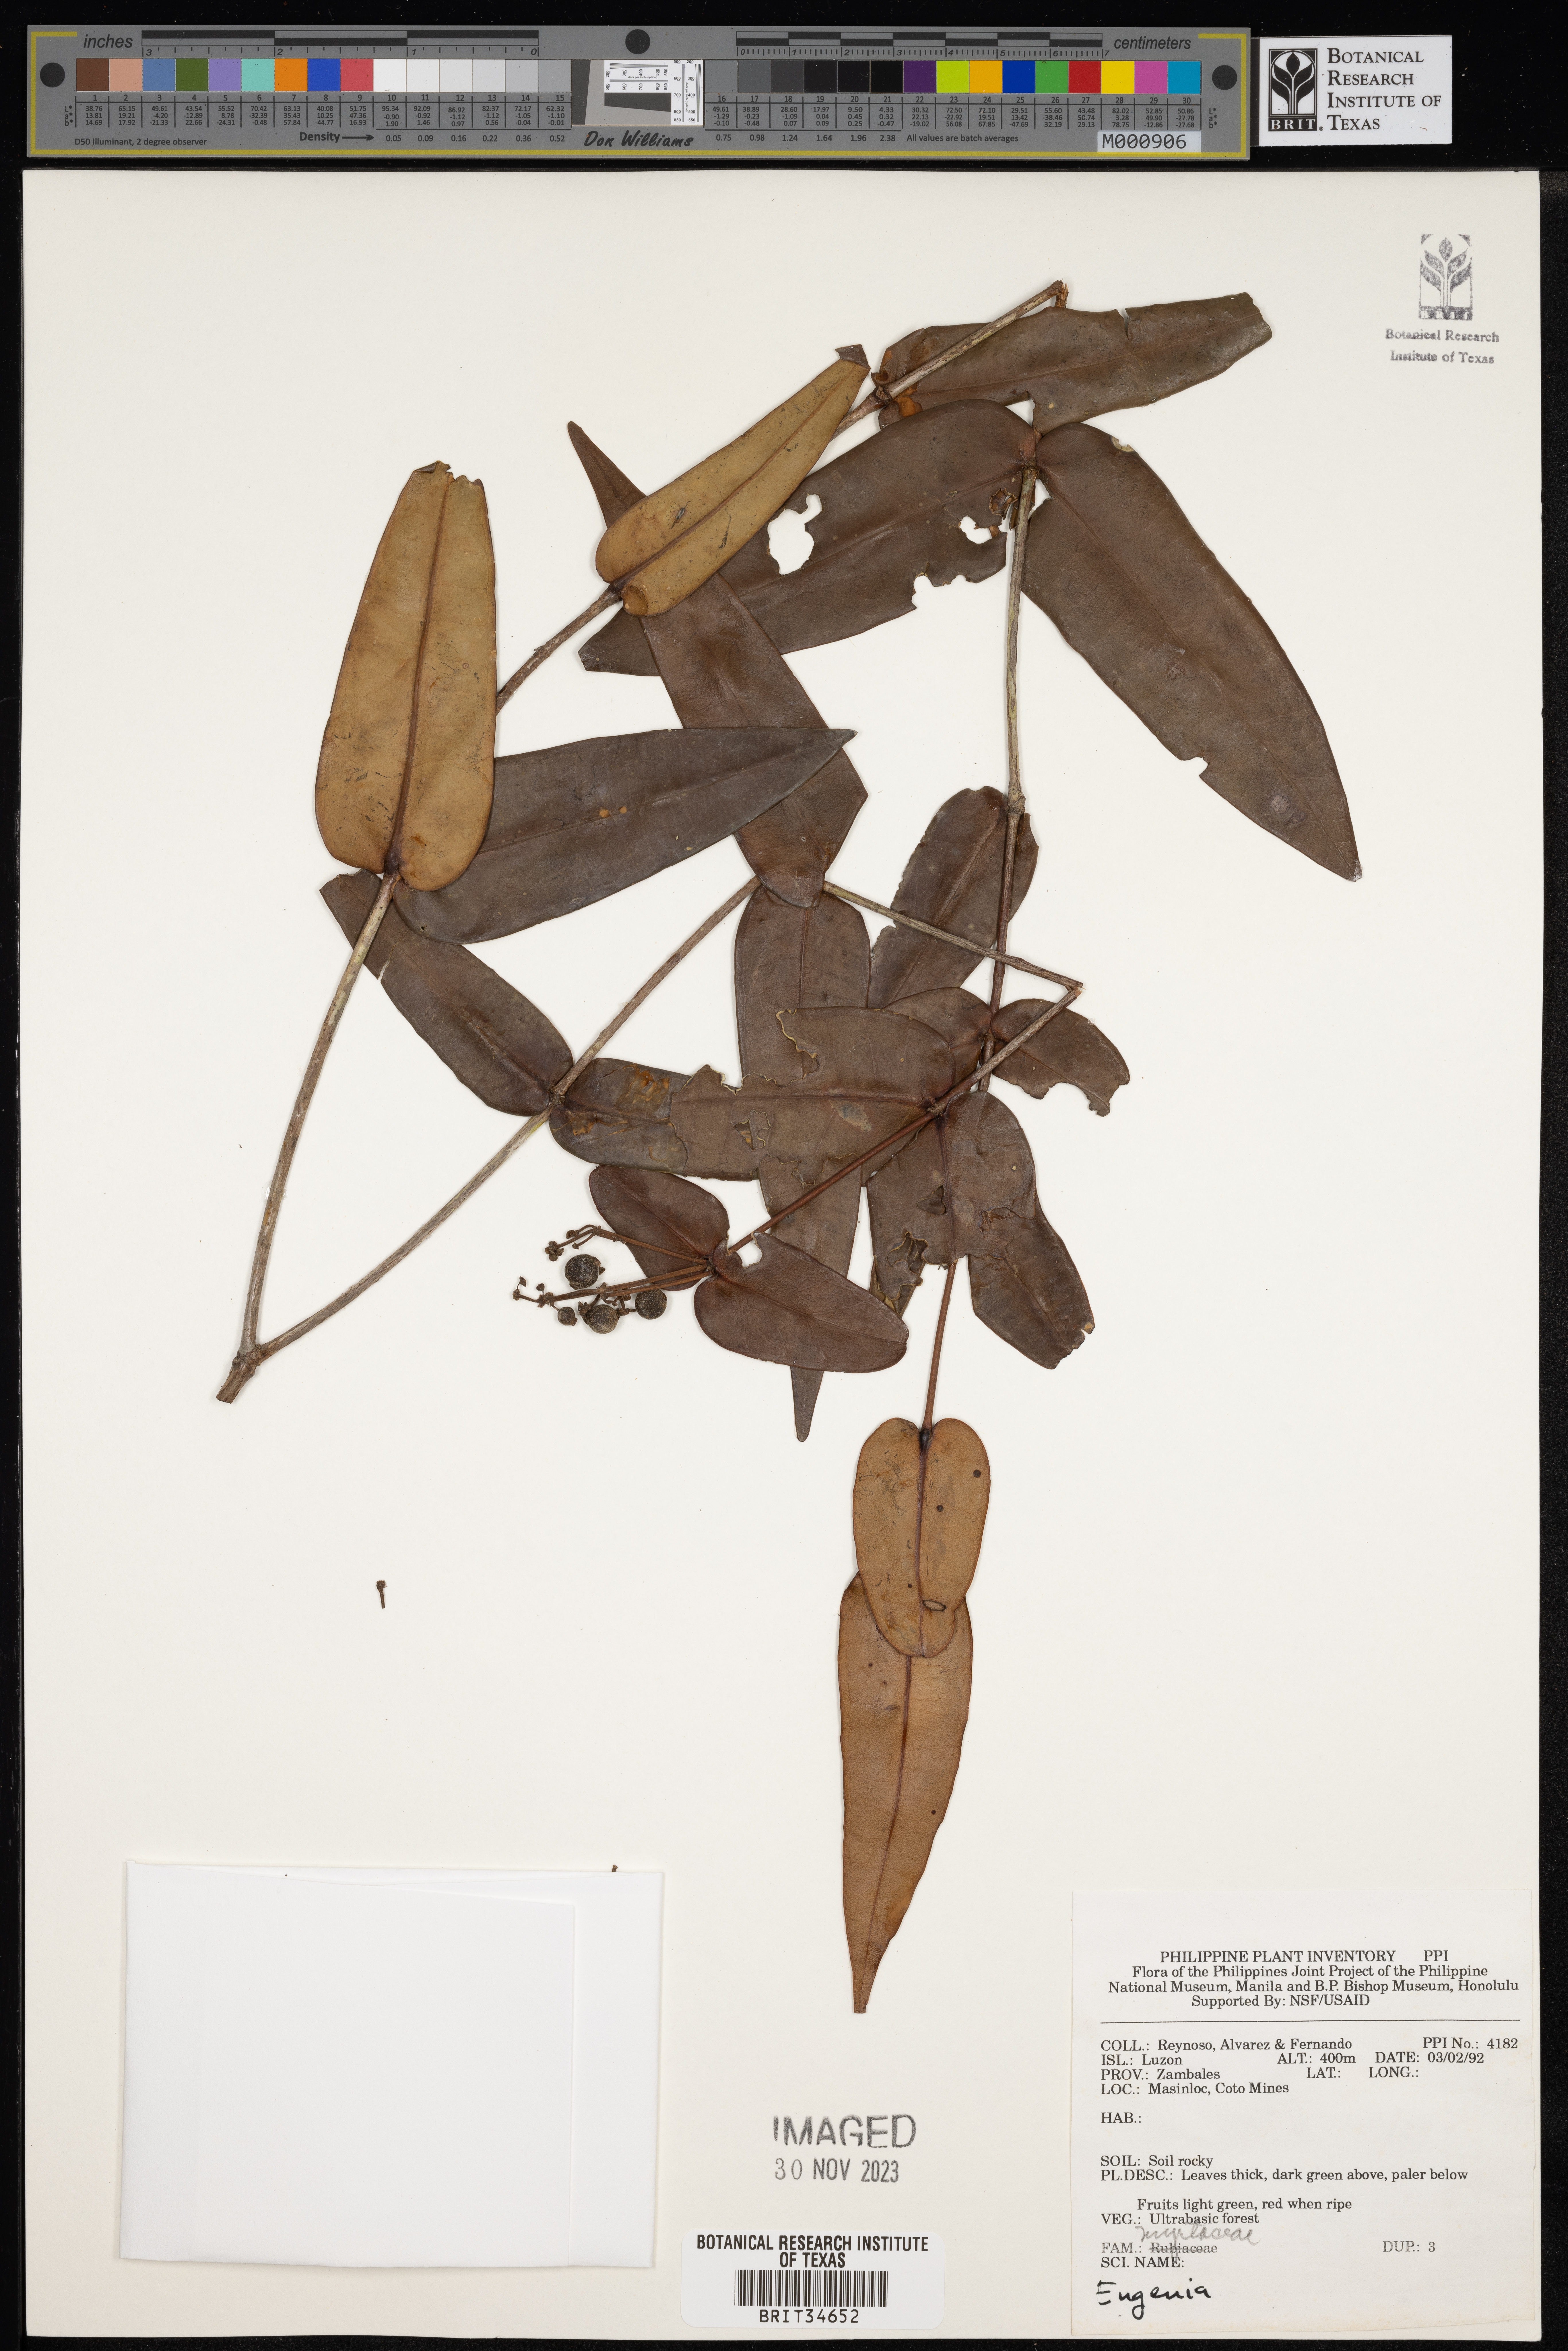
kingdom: Plantae
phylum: Tracheophyta
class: Magnoliopsida
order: Myrtales
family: Myrtaceae
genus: Eugenia
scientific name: Eugenia
